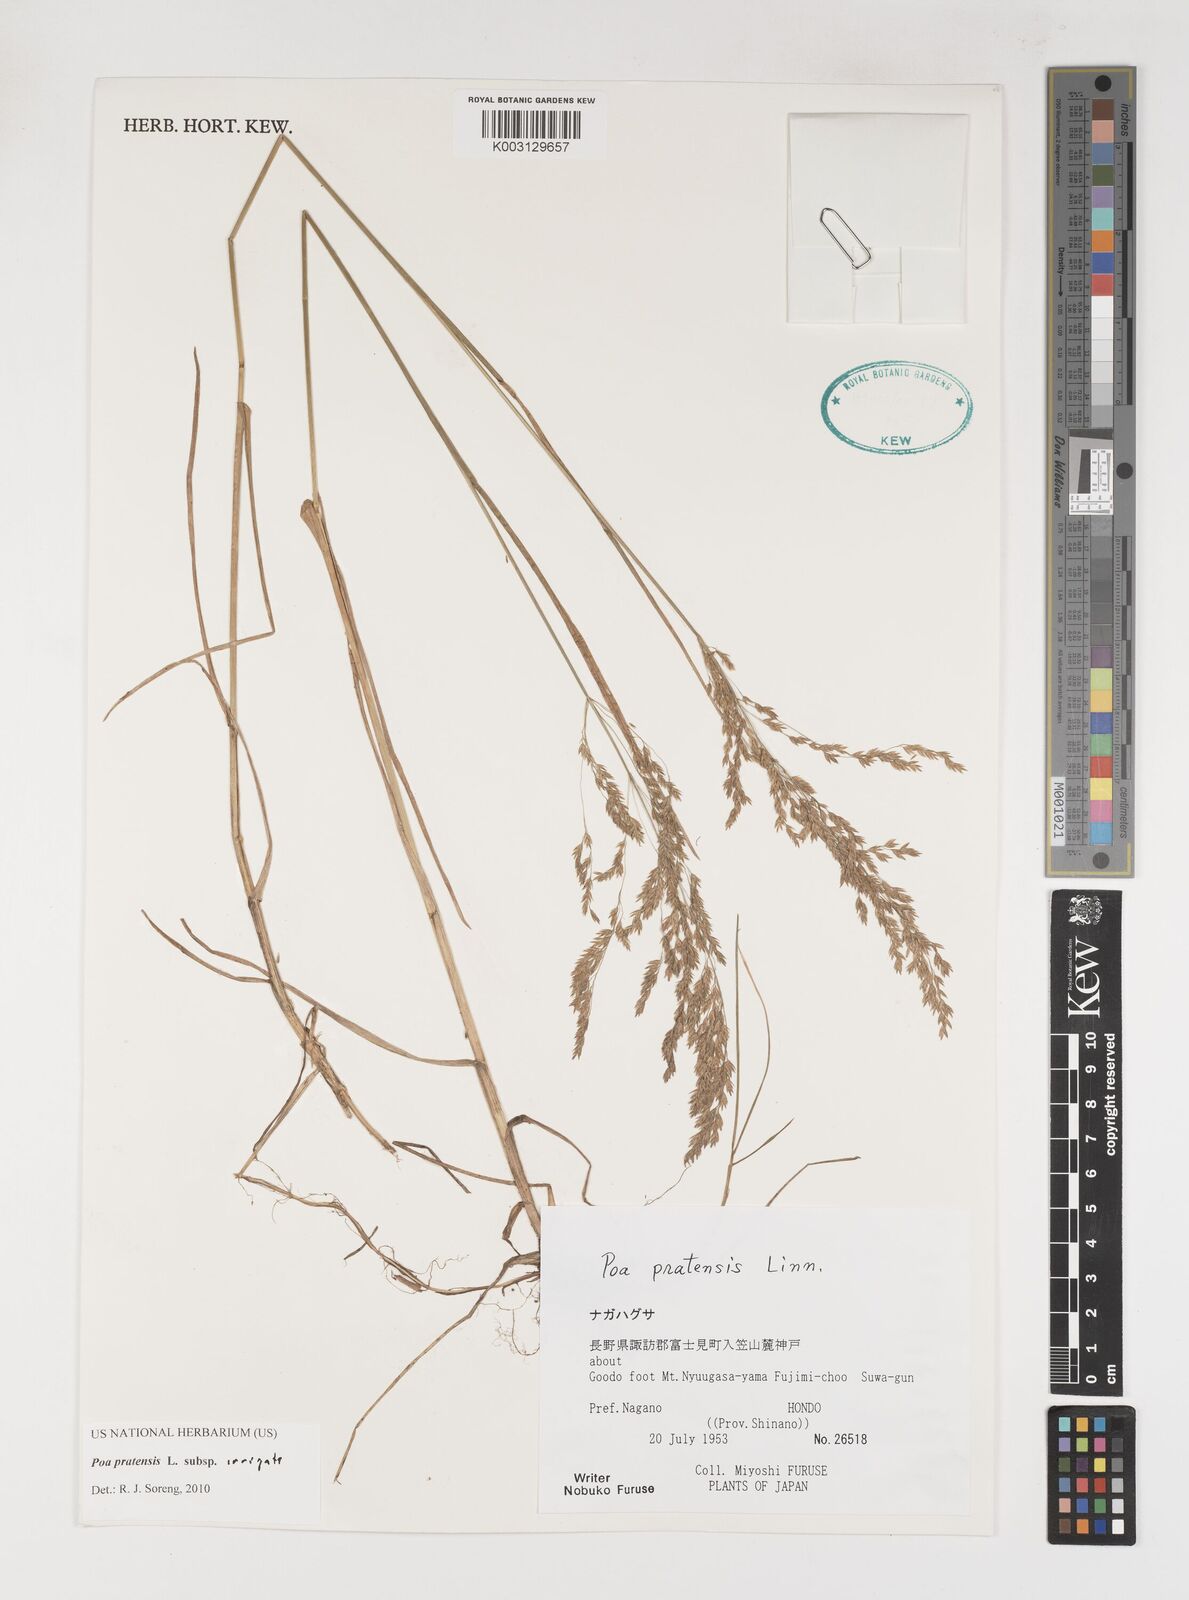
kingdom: Plantae
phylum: Tracheophyta
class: Liliopsida
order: Poales
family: Poaceae
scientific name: Poaceae
